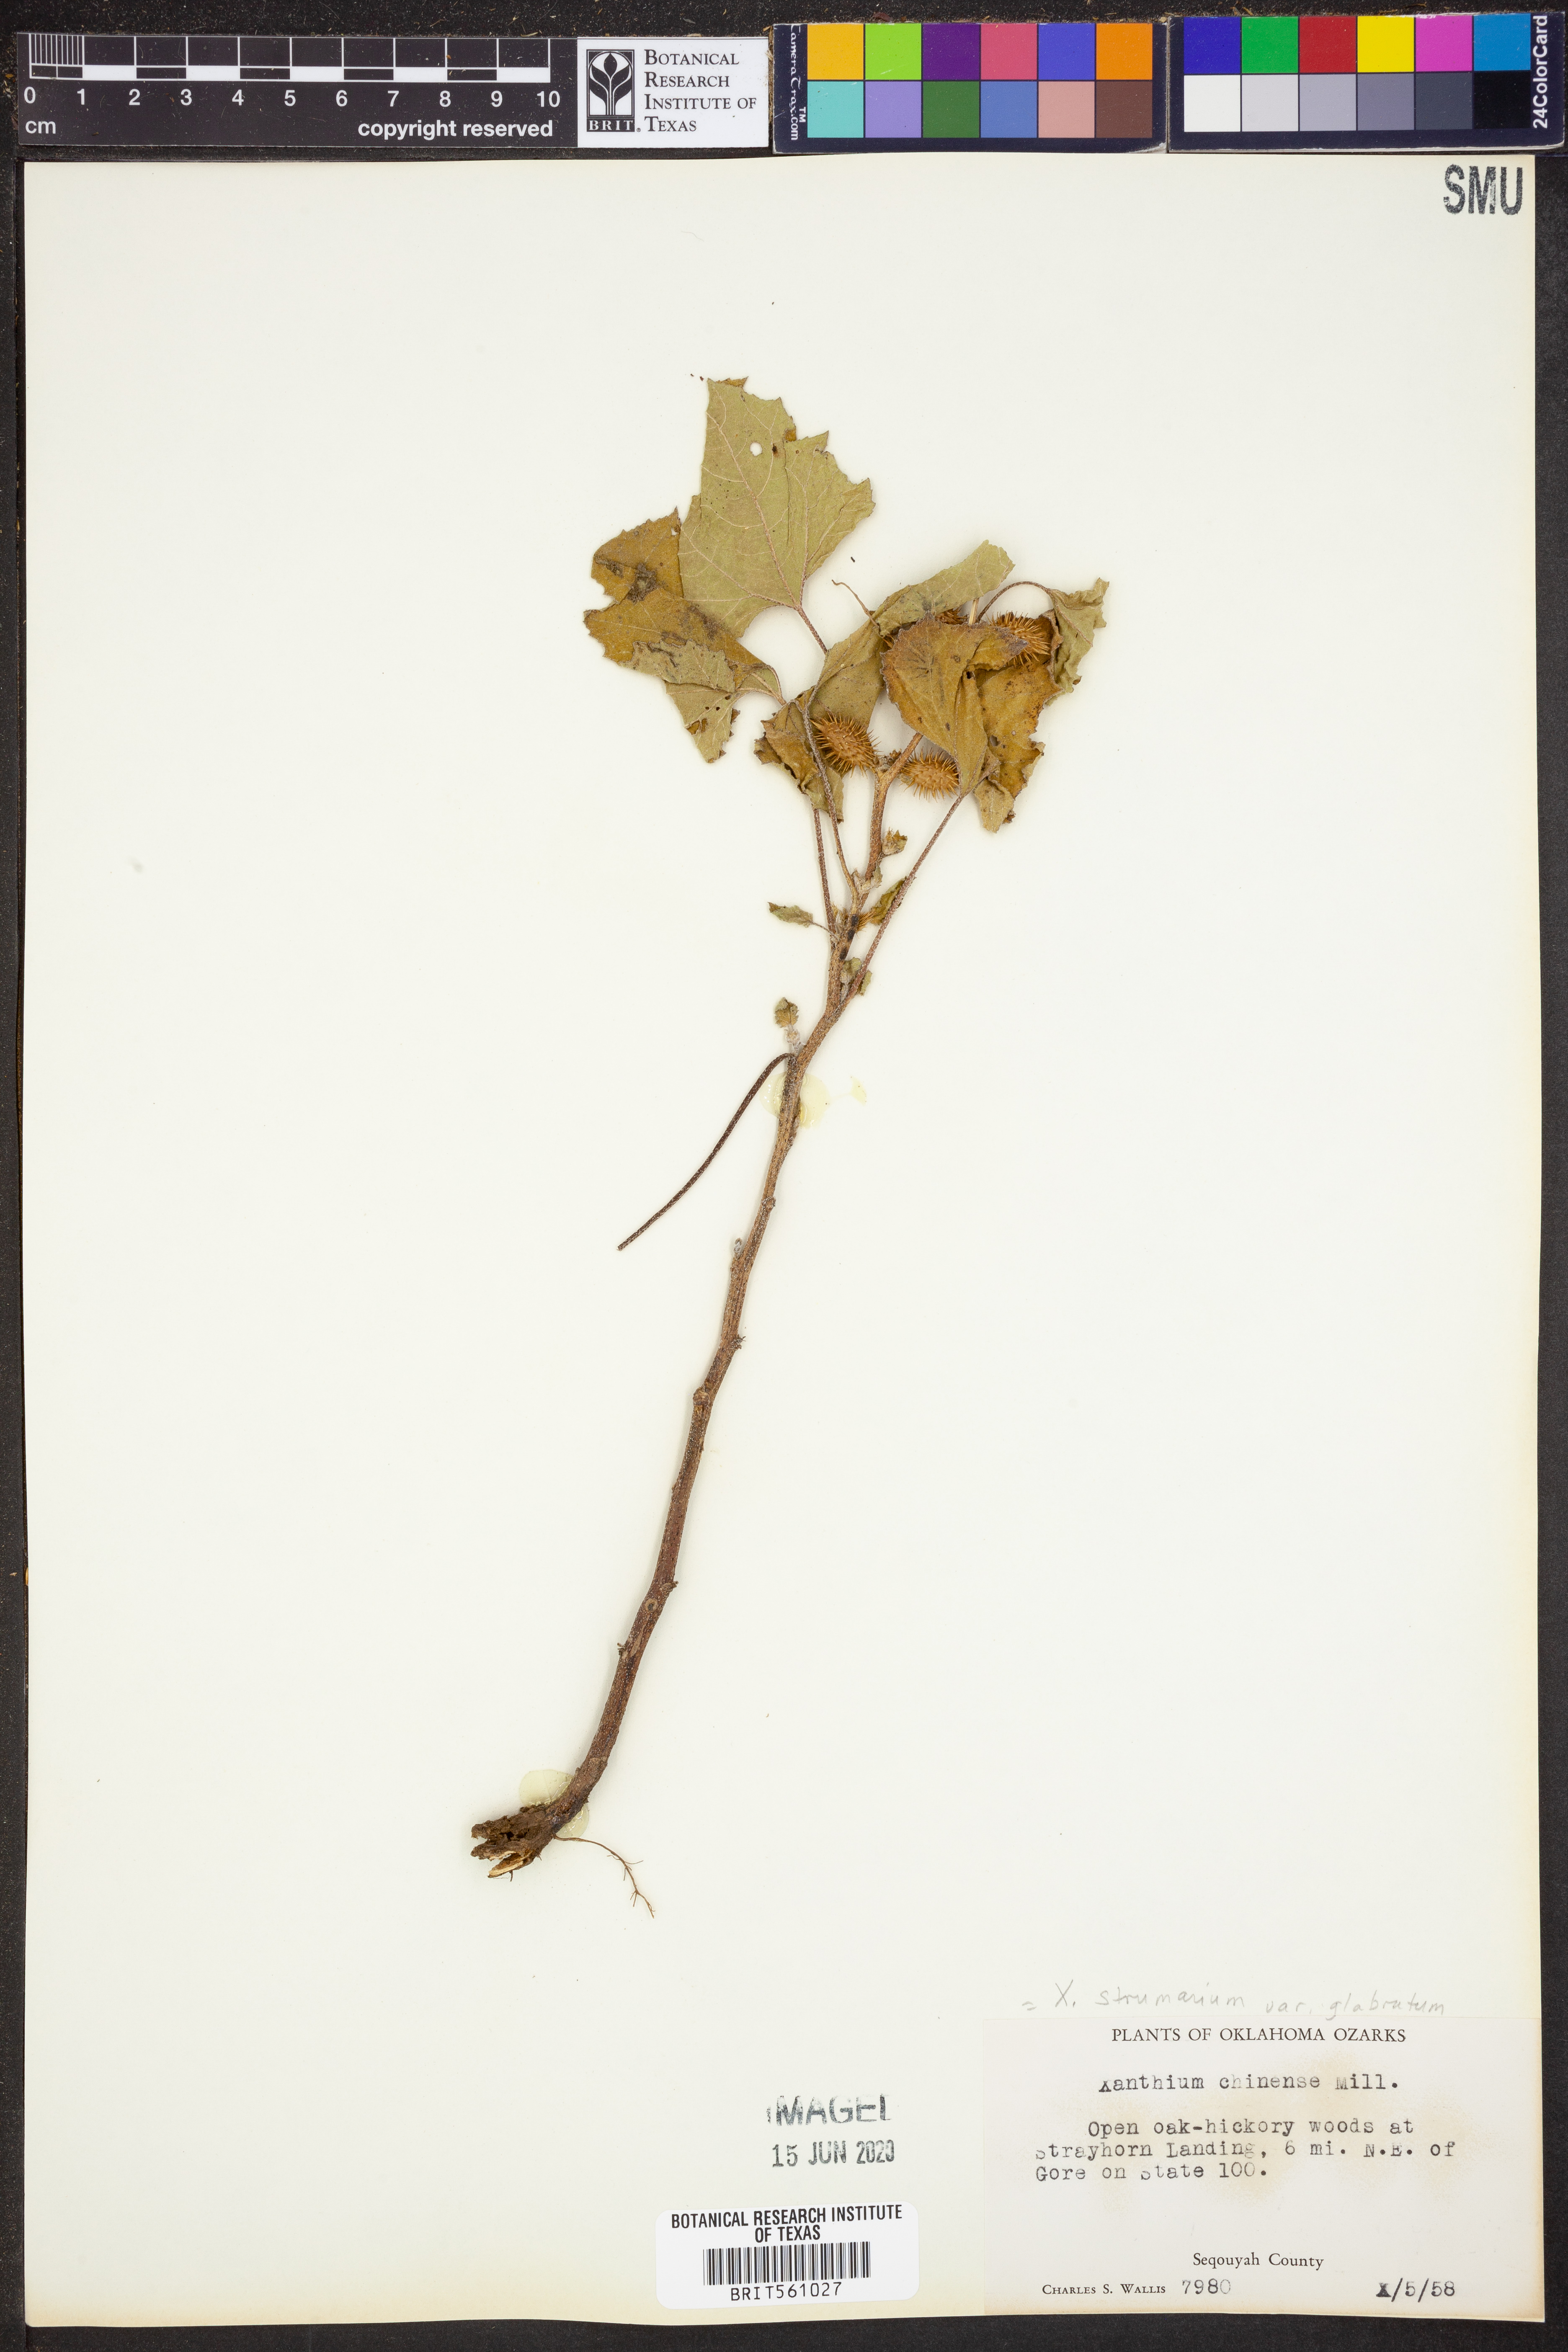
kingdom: Plantae
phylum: Tracheophyta
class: Magnoliopsida
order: Asterales
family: Asteraceae
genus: Xanthium
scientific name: Xanthium occidentale
